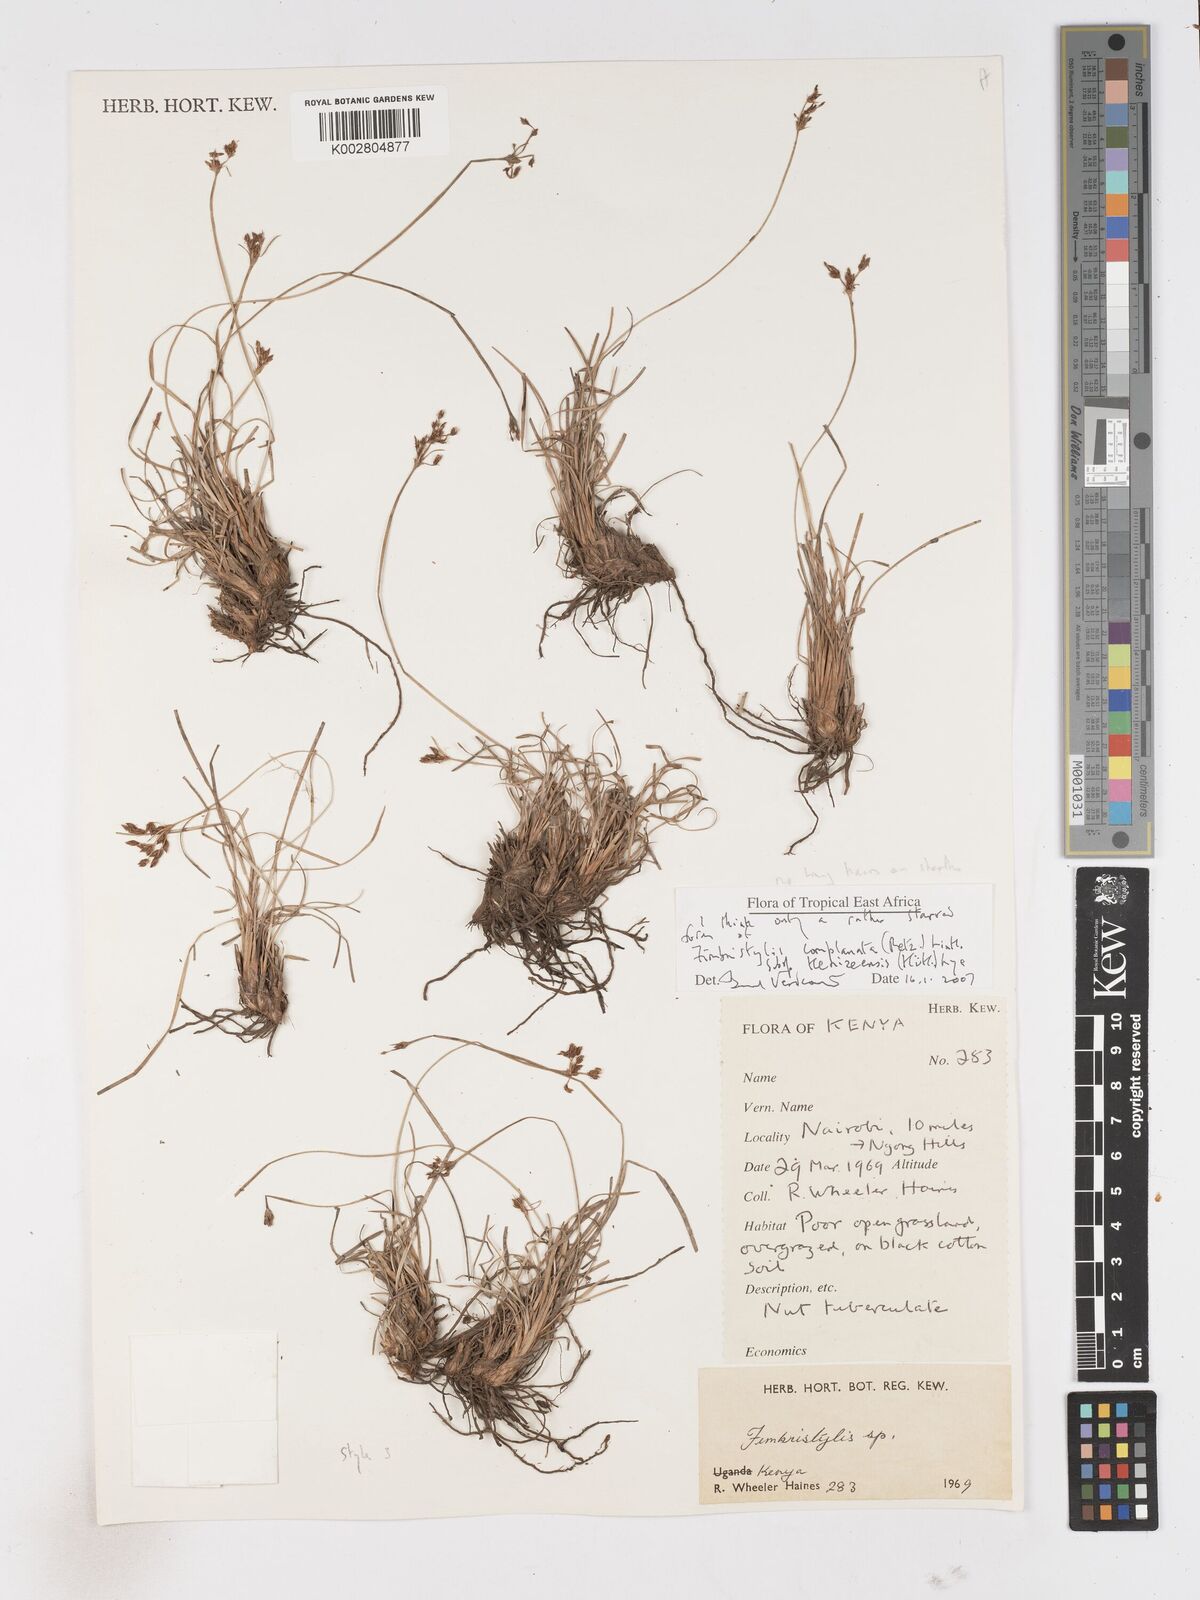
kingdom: Plantae
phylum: Tracheophyta
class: Liliopsida
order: Poales
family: Cyperaceae
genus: Fimbristylis
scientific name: Fimbristylis complanata
